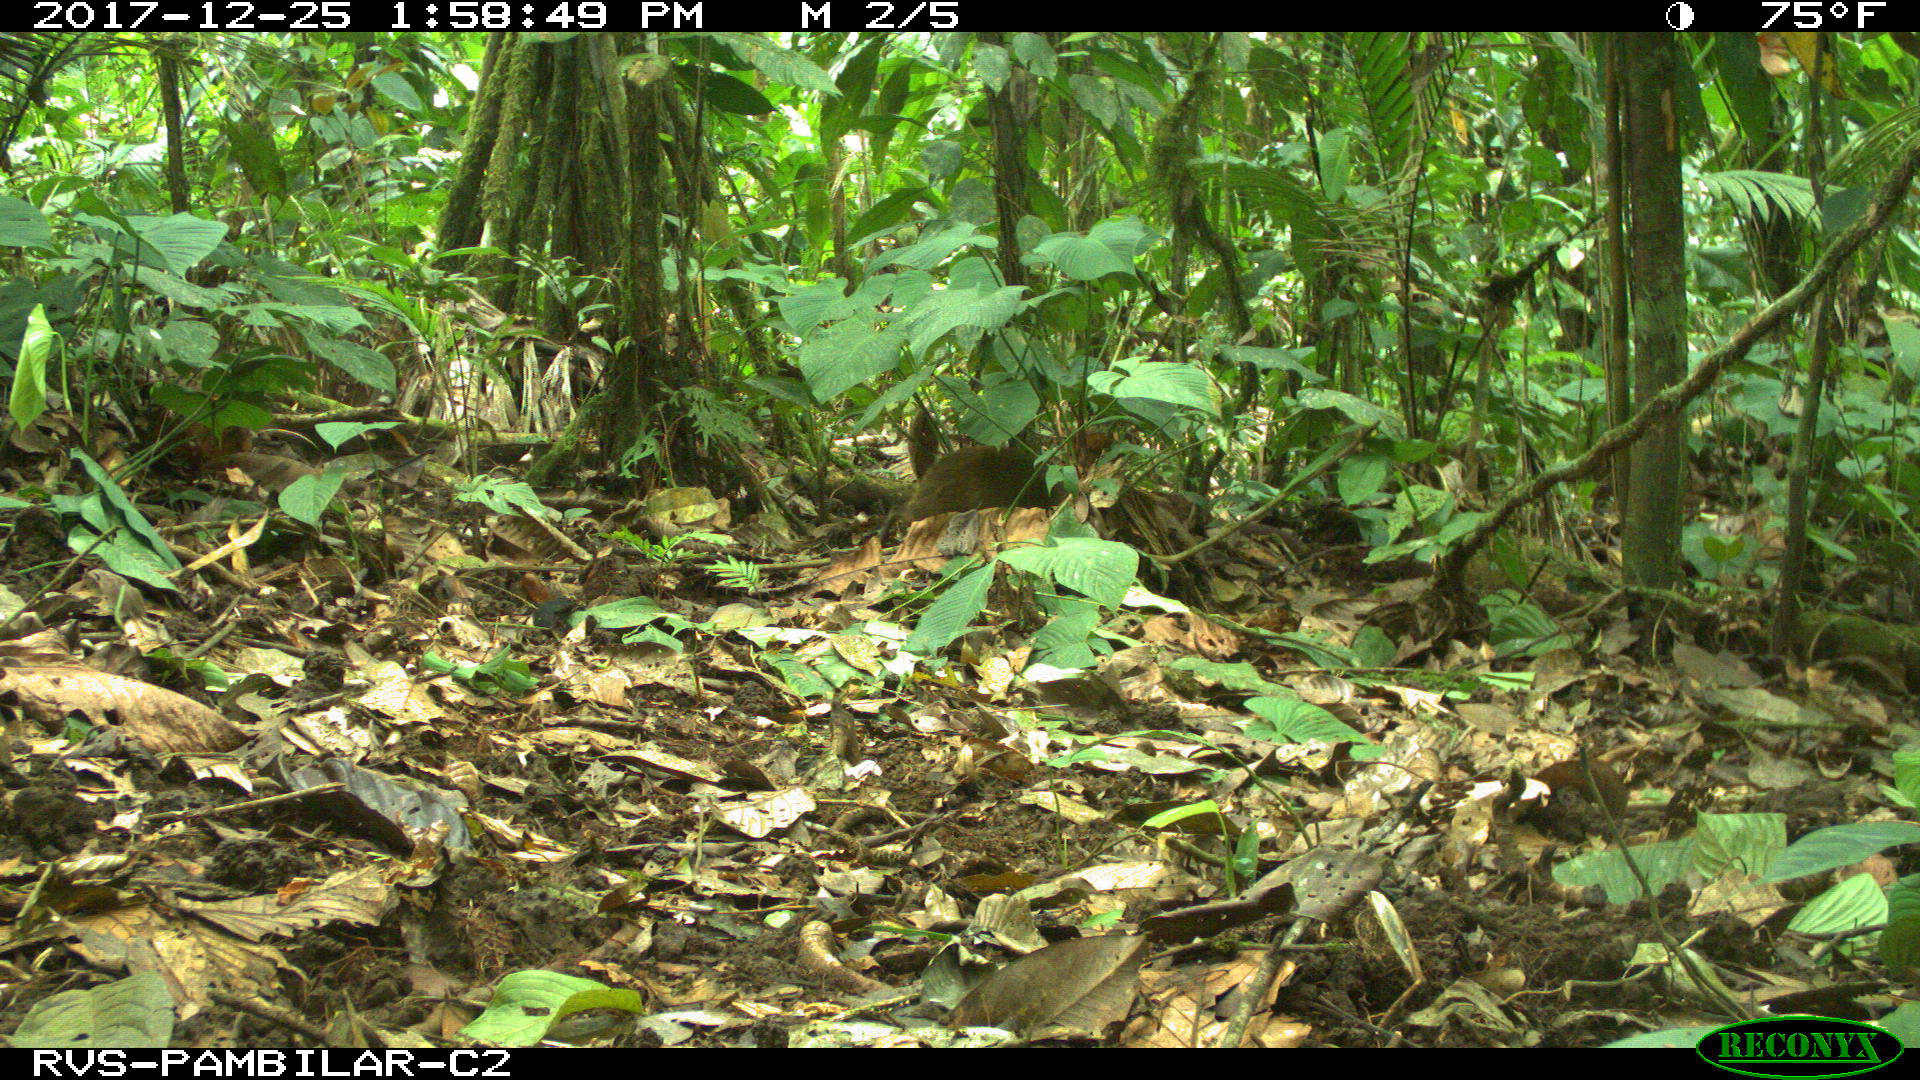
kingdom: Animalia
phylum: Chordata
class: Mammalia
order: Rodentia
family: Dasyproctidae
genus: Dasyprocta
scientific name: Dasyprocta punctata
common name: Central american agouti
